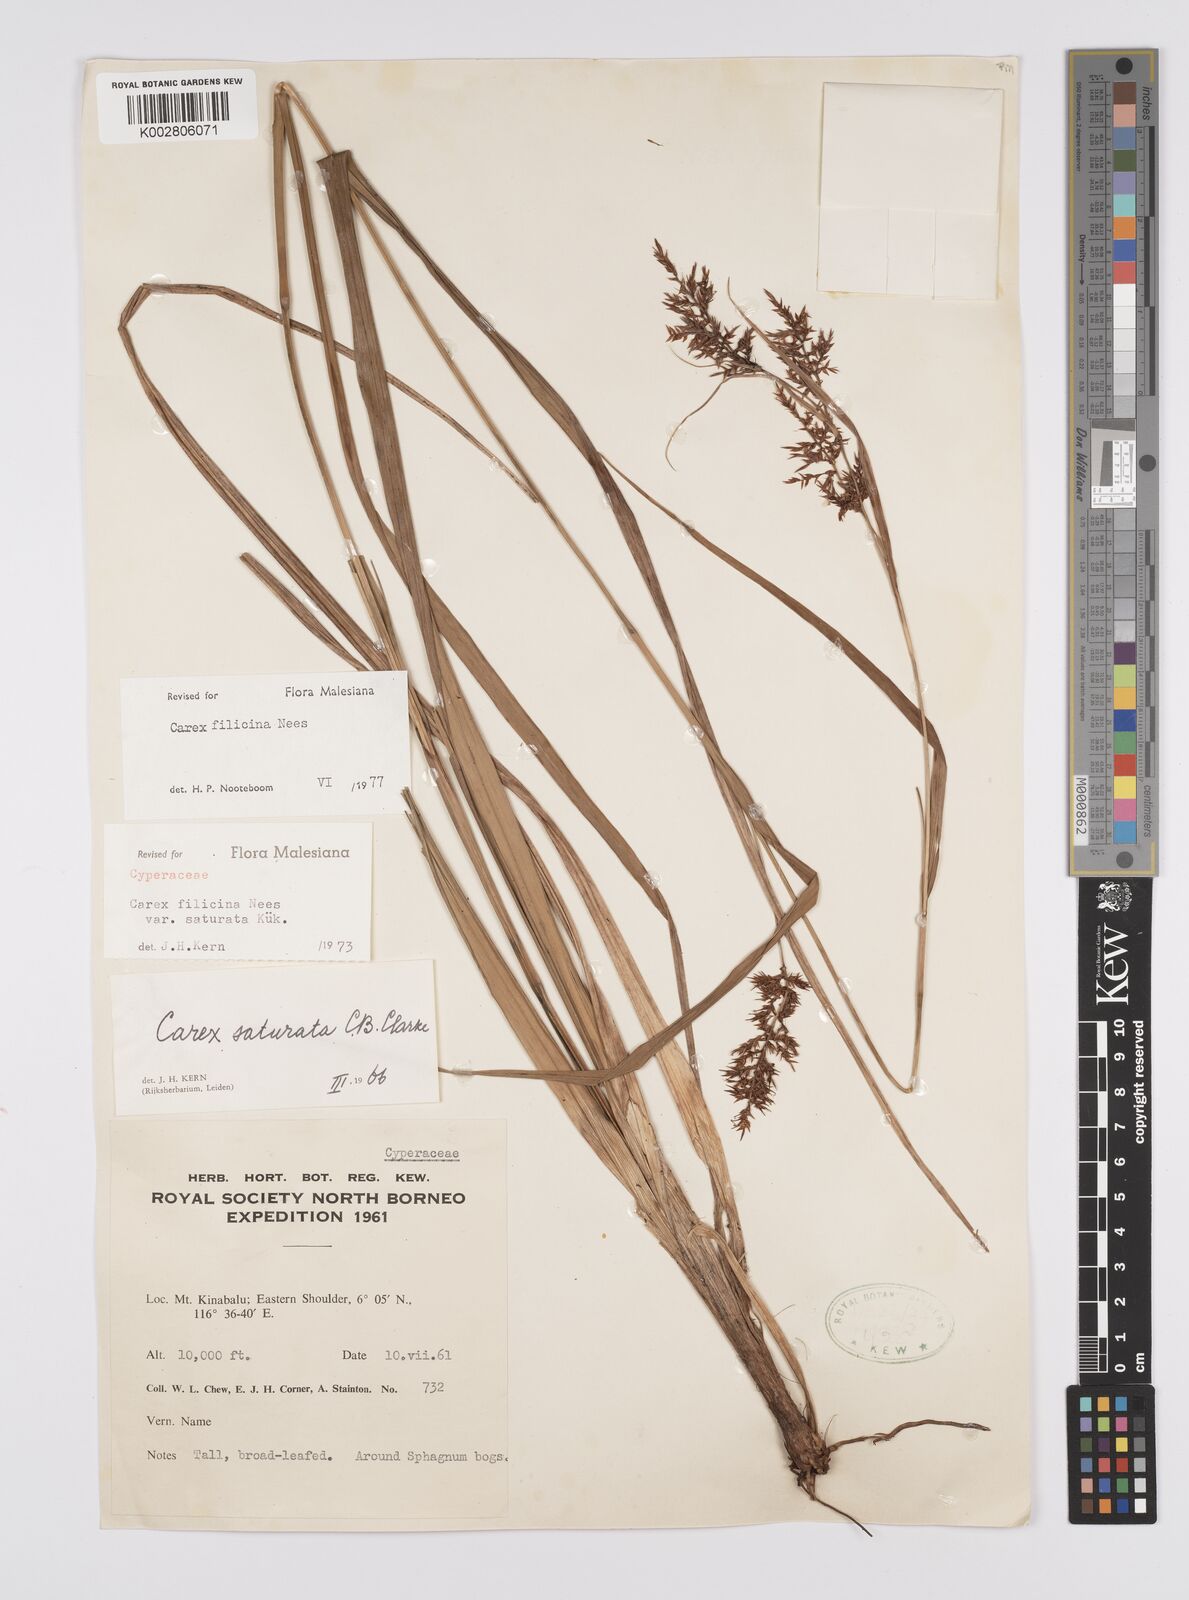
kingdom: Plantae
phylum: Tracheophyta
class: Liliopsida
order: Poales
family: Cyperaceae
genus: Carex
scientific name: Carex filicina
